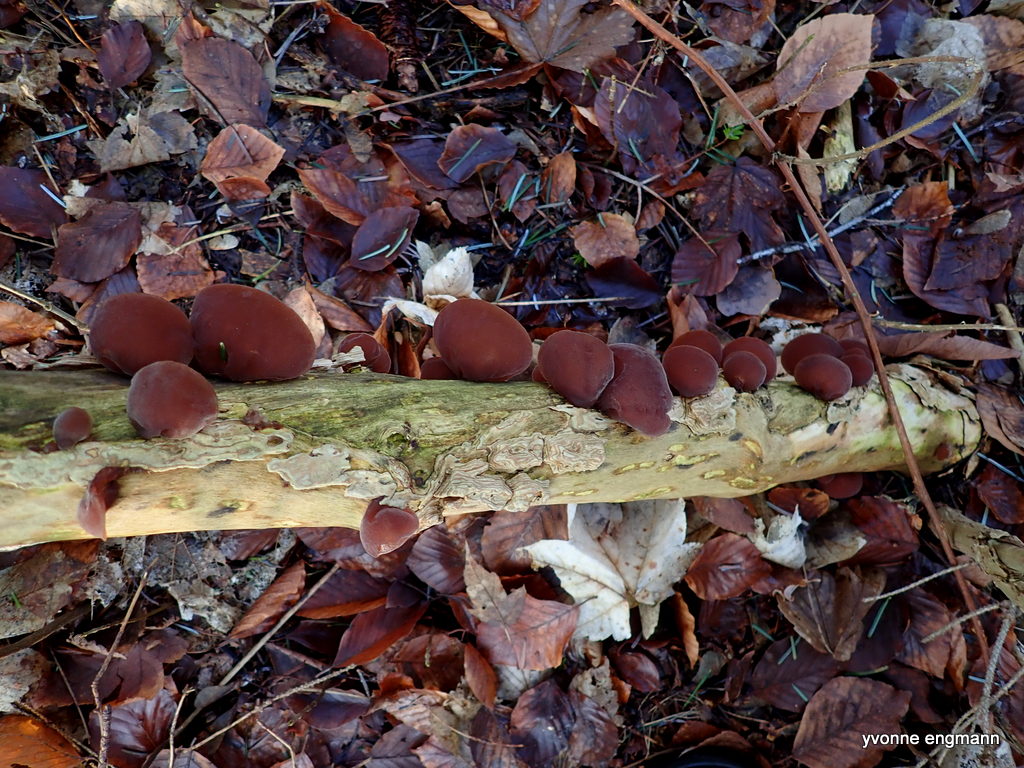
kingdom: Fungi
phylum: Basidiomycota
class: Agaricomycetes
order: Auriculariales
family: Auriculariaceae
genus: Auricularia
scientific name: Auricularia auricula-judae
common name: almindelig judasøre
